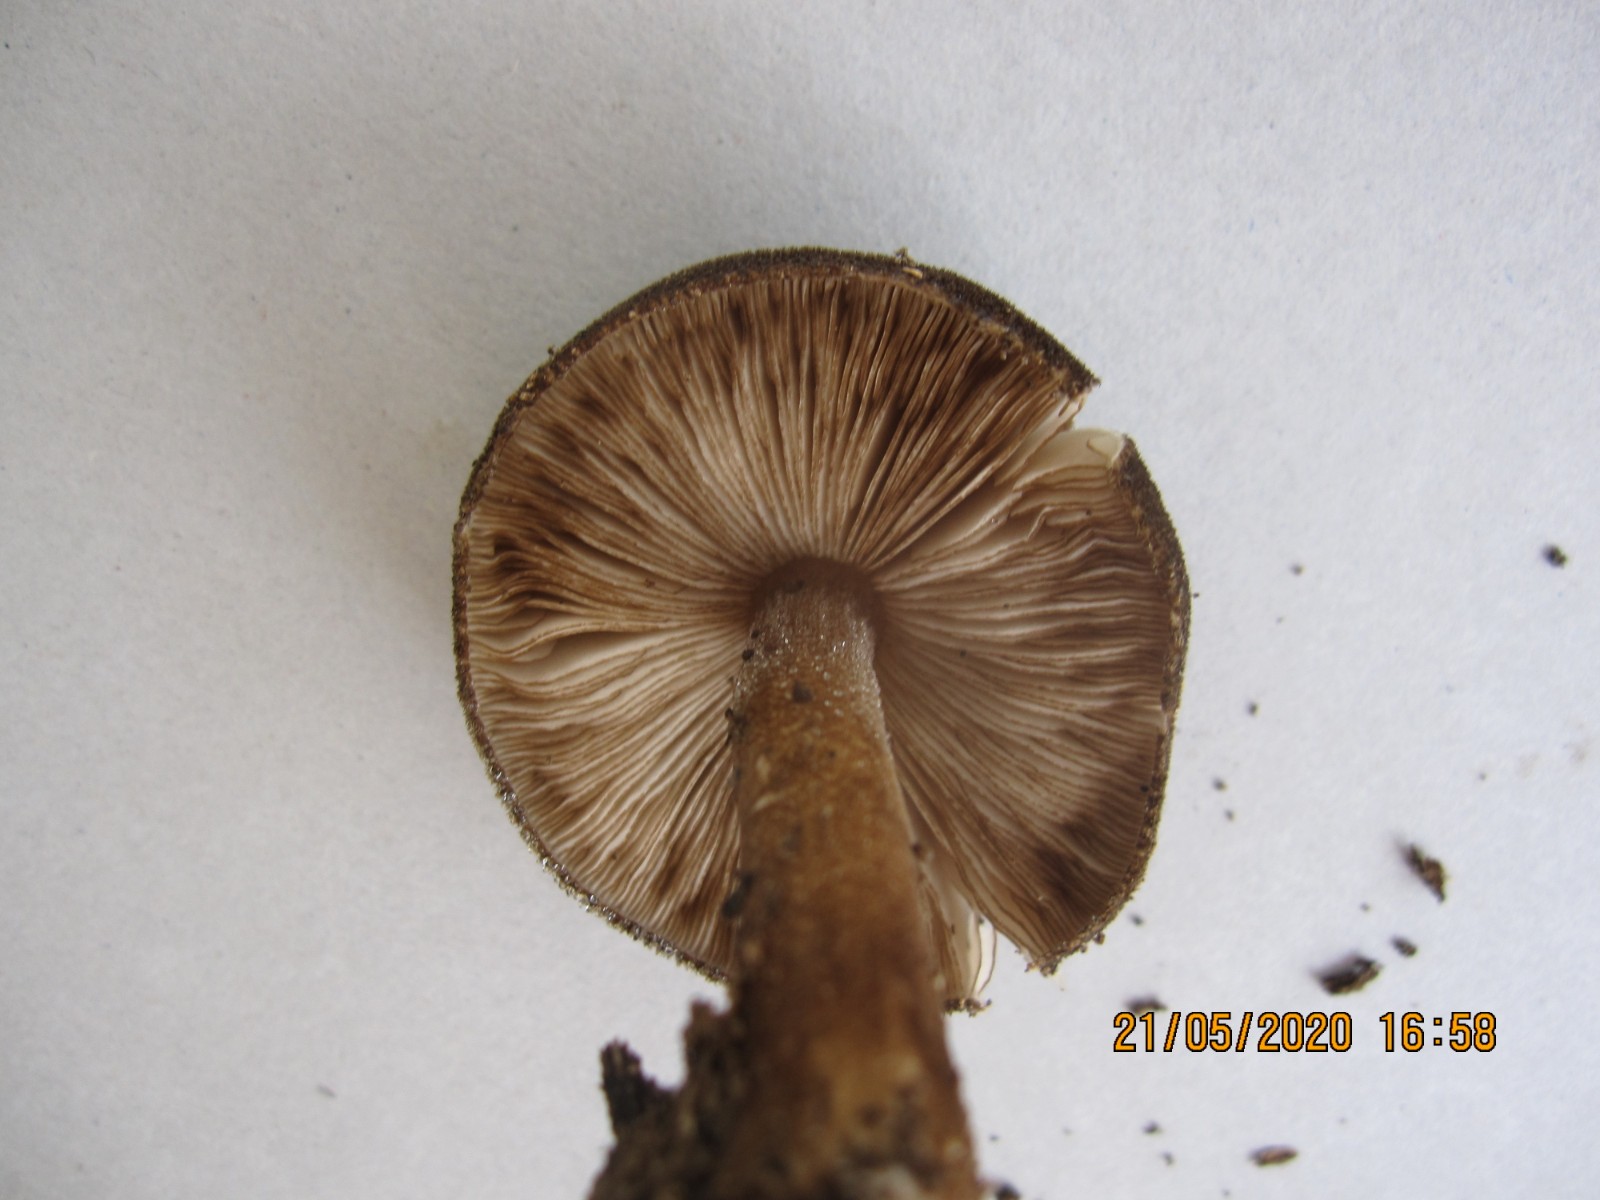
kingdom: Fungi
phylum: Basidiomycota
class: Agaricomycetes
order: Agaricales
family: Pluteaceae
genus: Pluteus
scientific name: Pluteus umbrosus
